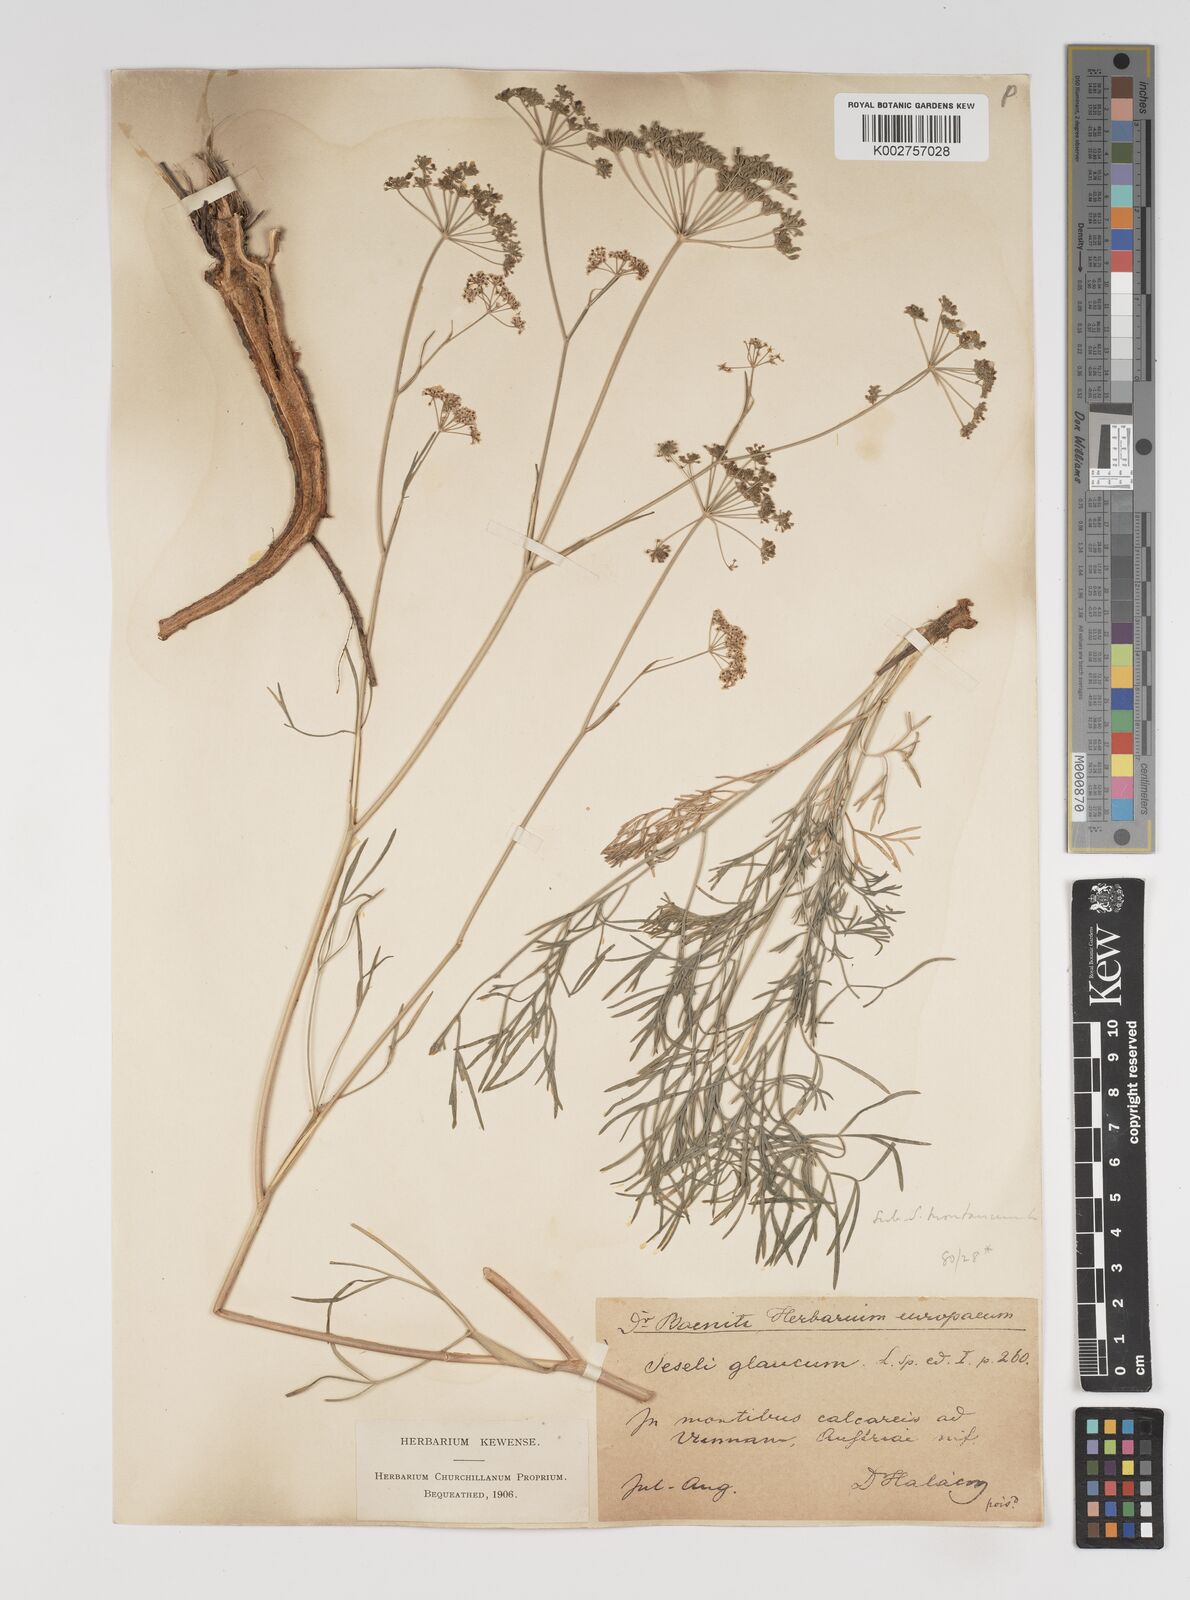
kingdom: Plantae
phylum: Tracheophyta
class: Magnoliopsida
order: Apiales
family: Apiaceae
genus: Seseli
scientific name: Seseli montanum
